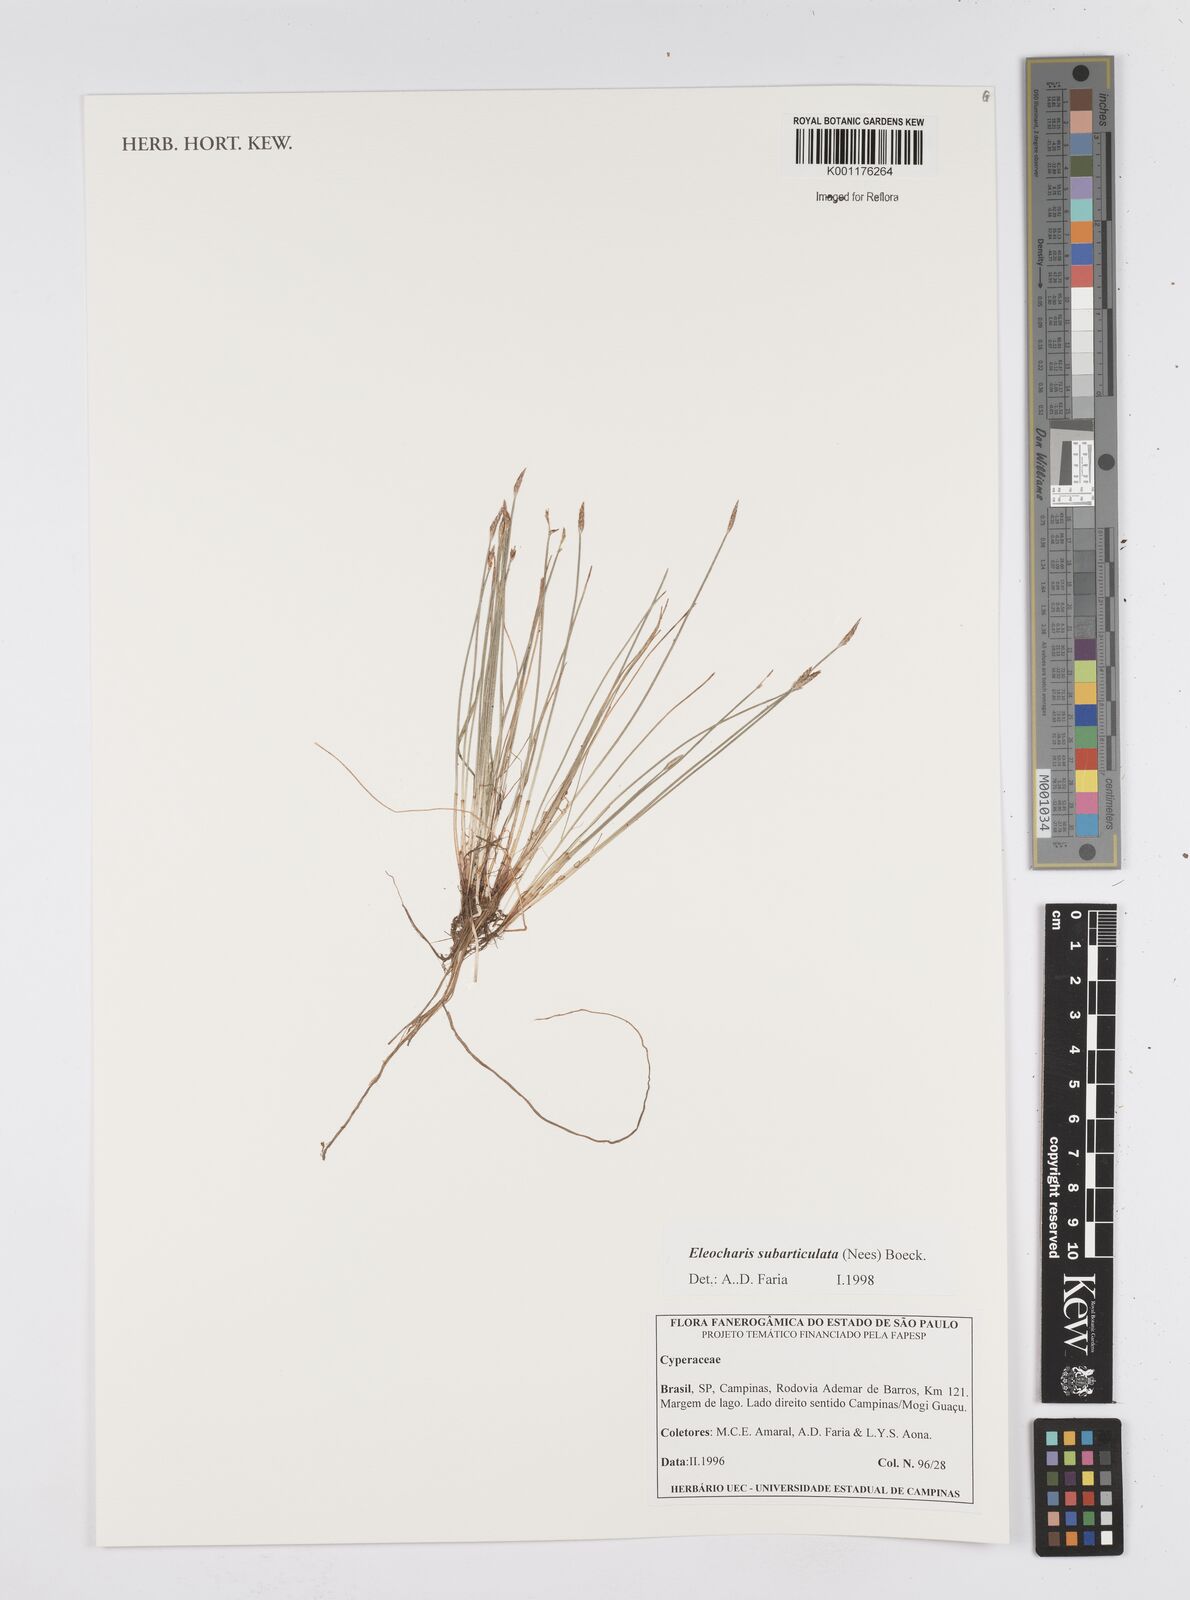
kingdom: Plantae
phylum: Tracheophyta
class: Liliopsida
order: Poales
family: Cyperaceae
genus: Eleocharis
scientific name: Eleocharis subarticulata
